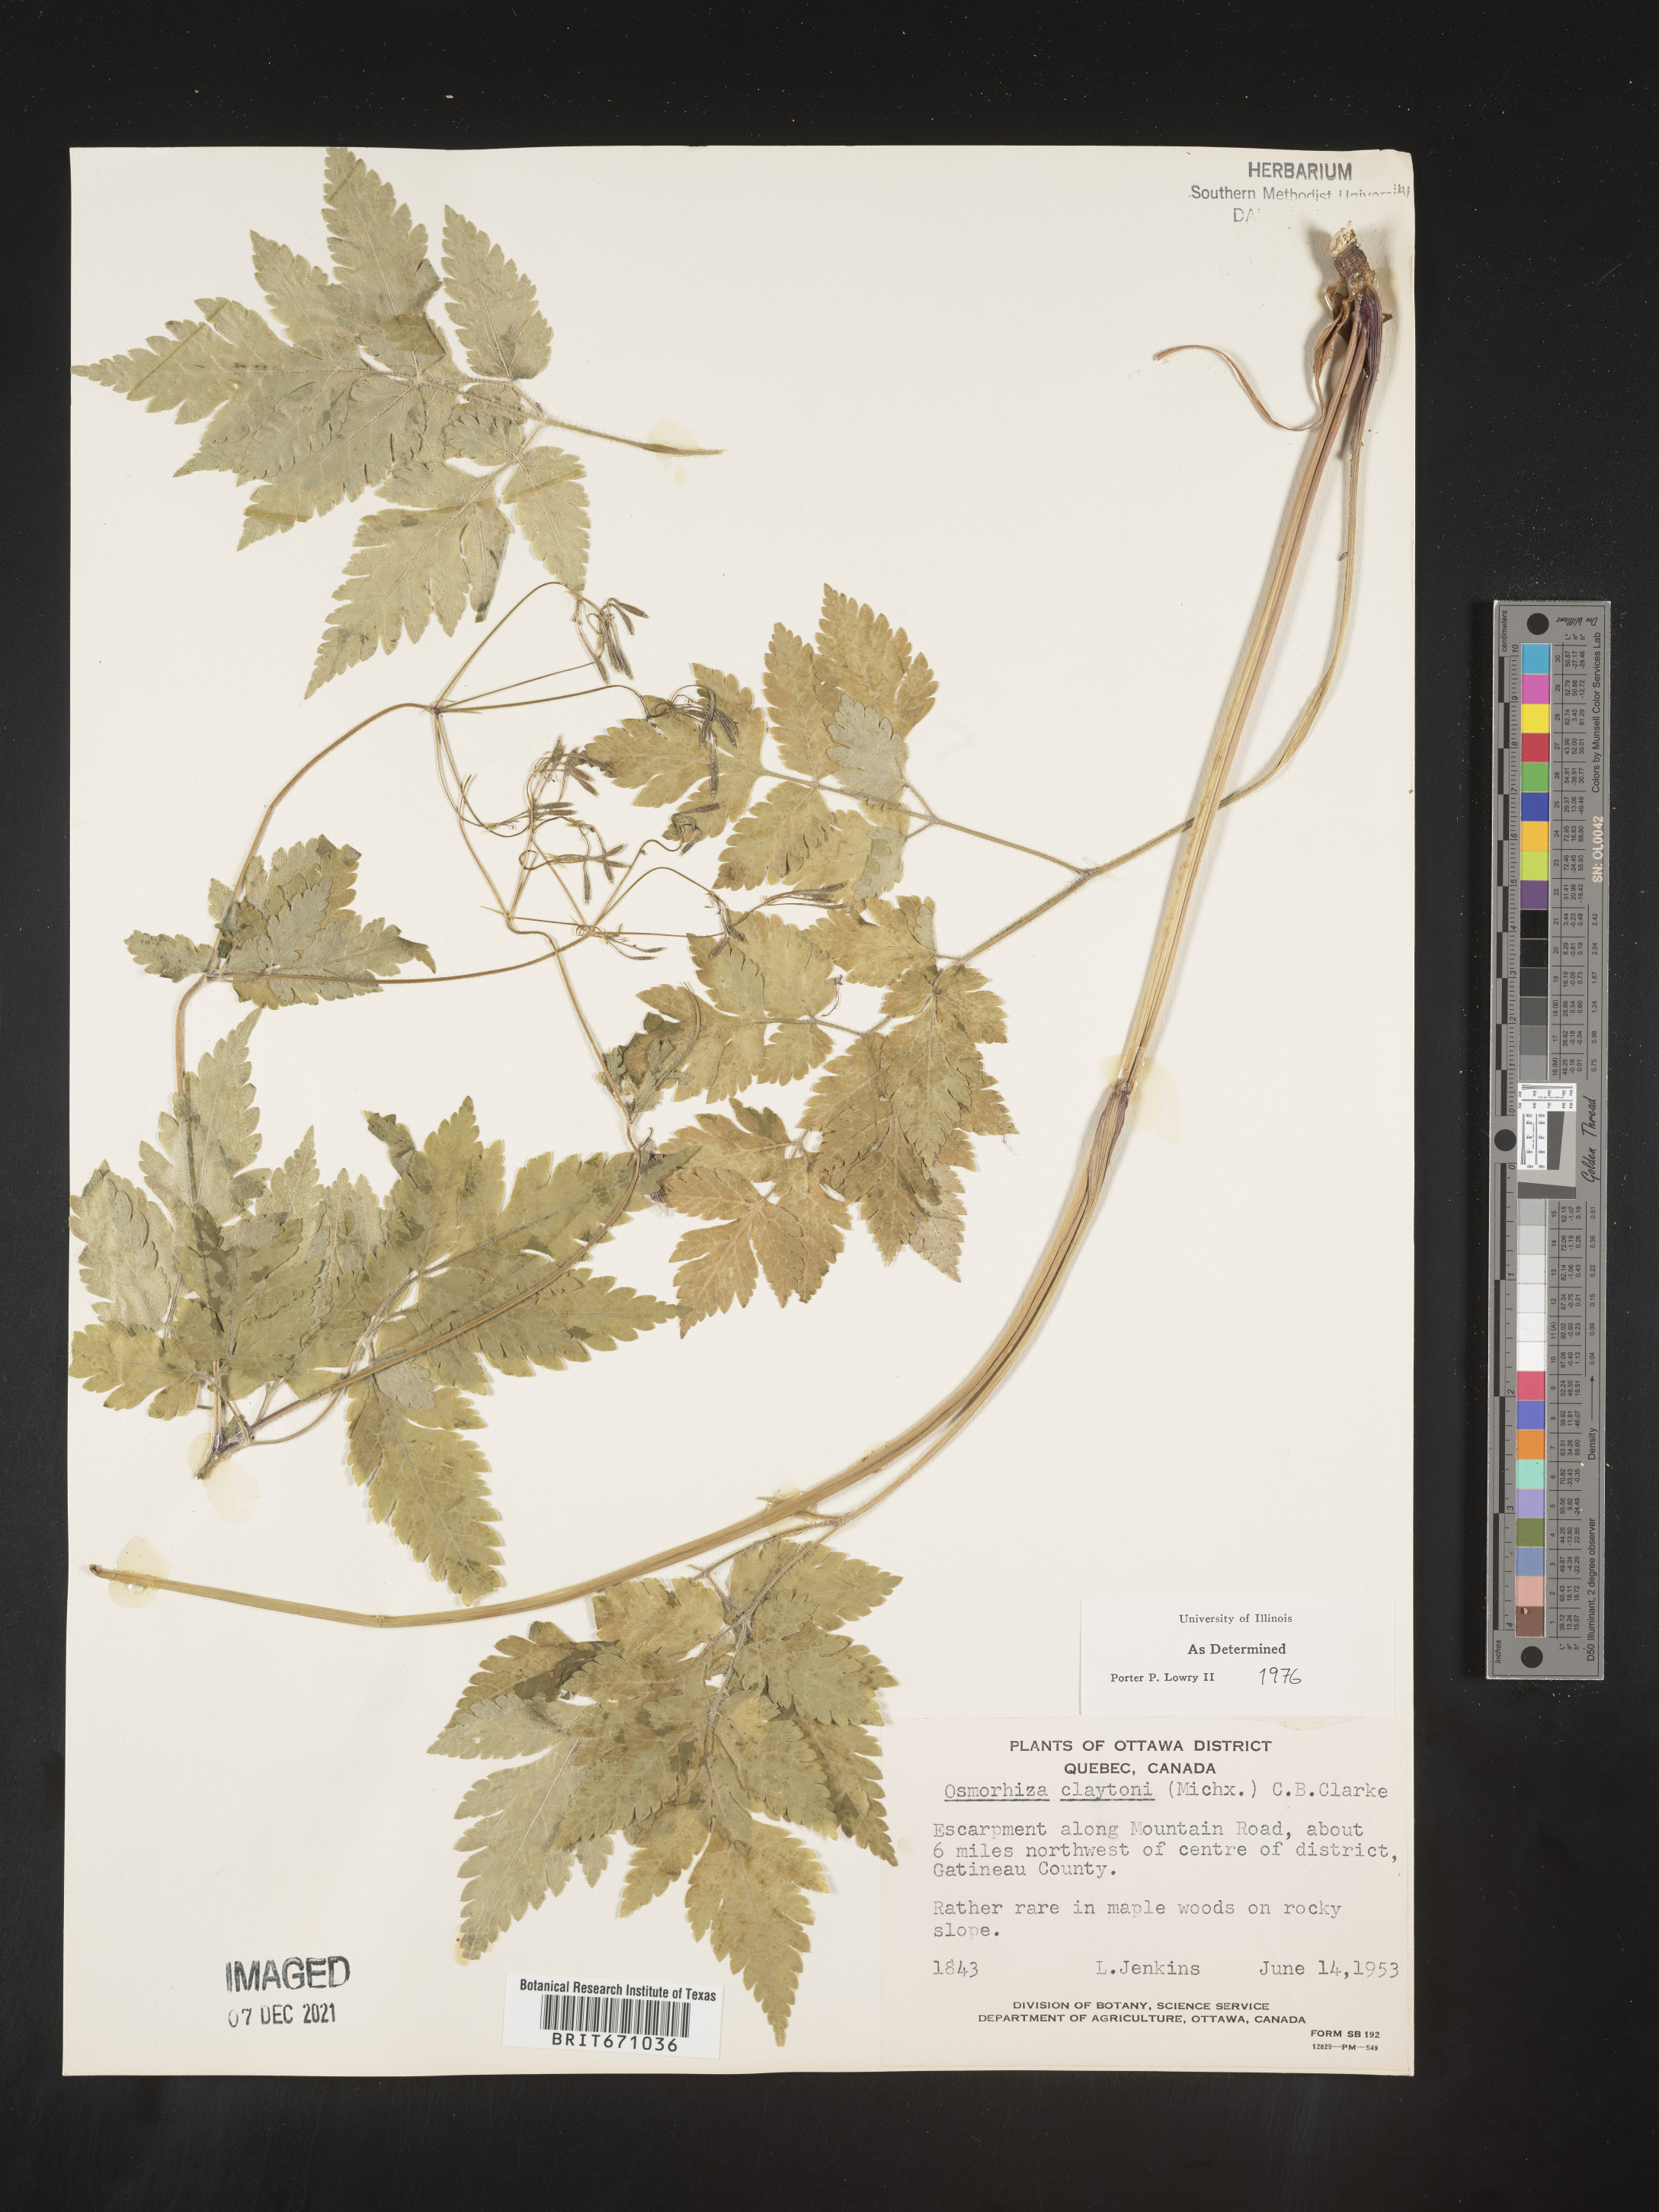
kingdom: Plantae
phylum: Tracheophyta
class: Magnoliopsida
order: Apiales
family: Apiaceae
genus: Osmorhiza
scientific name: Osmorhiza claytonii
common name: Hairy sweet cicely
